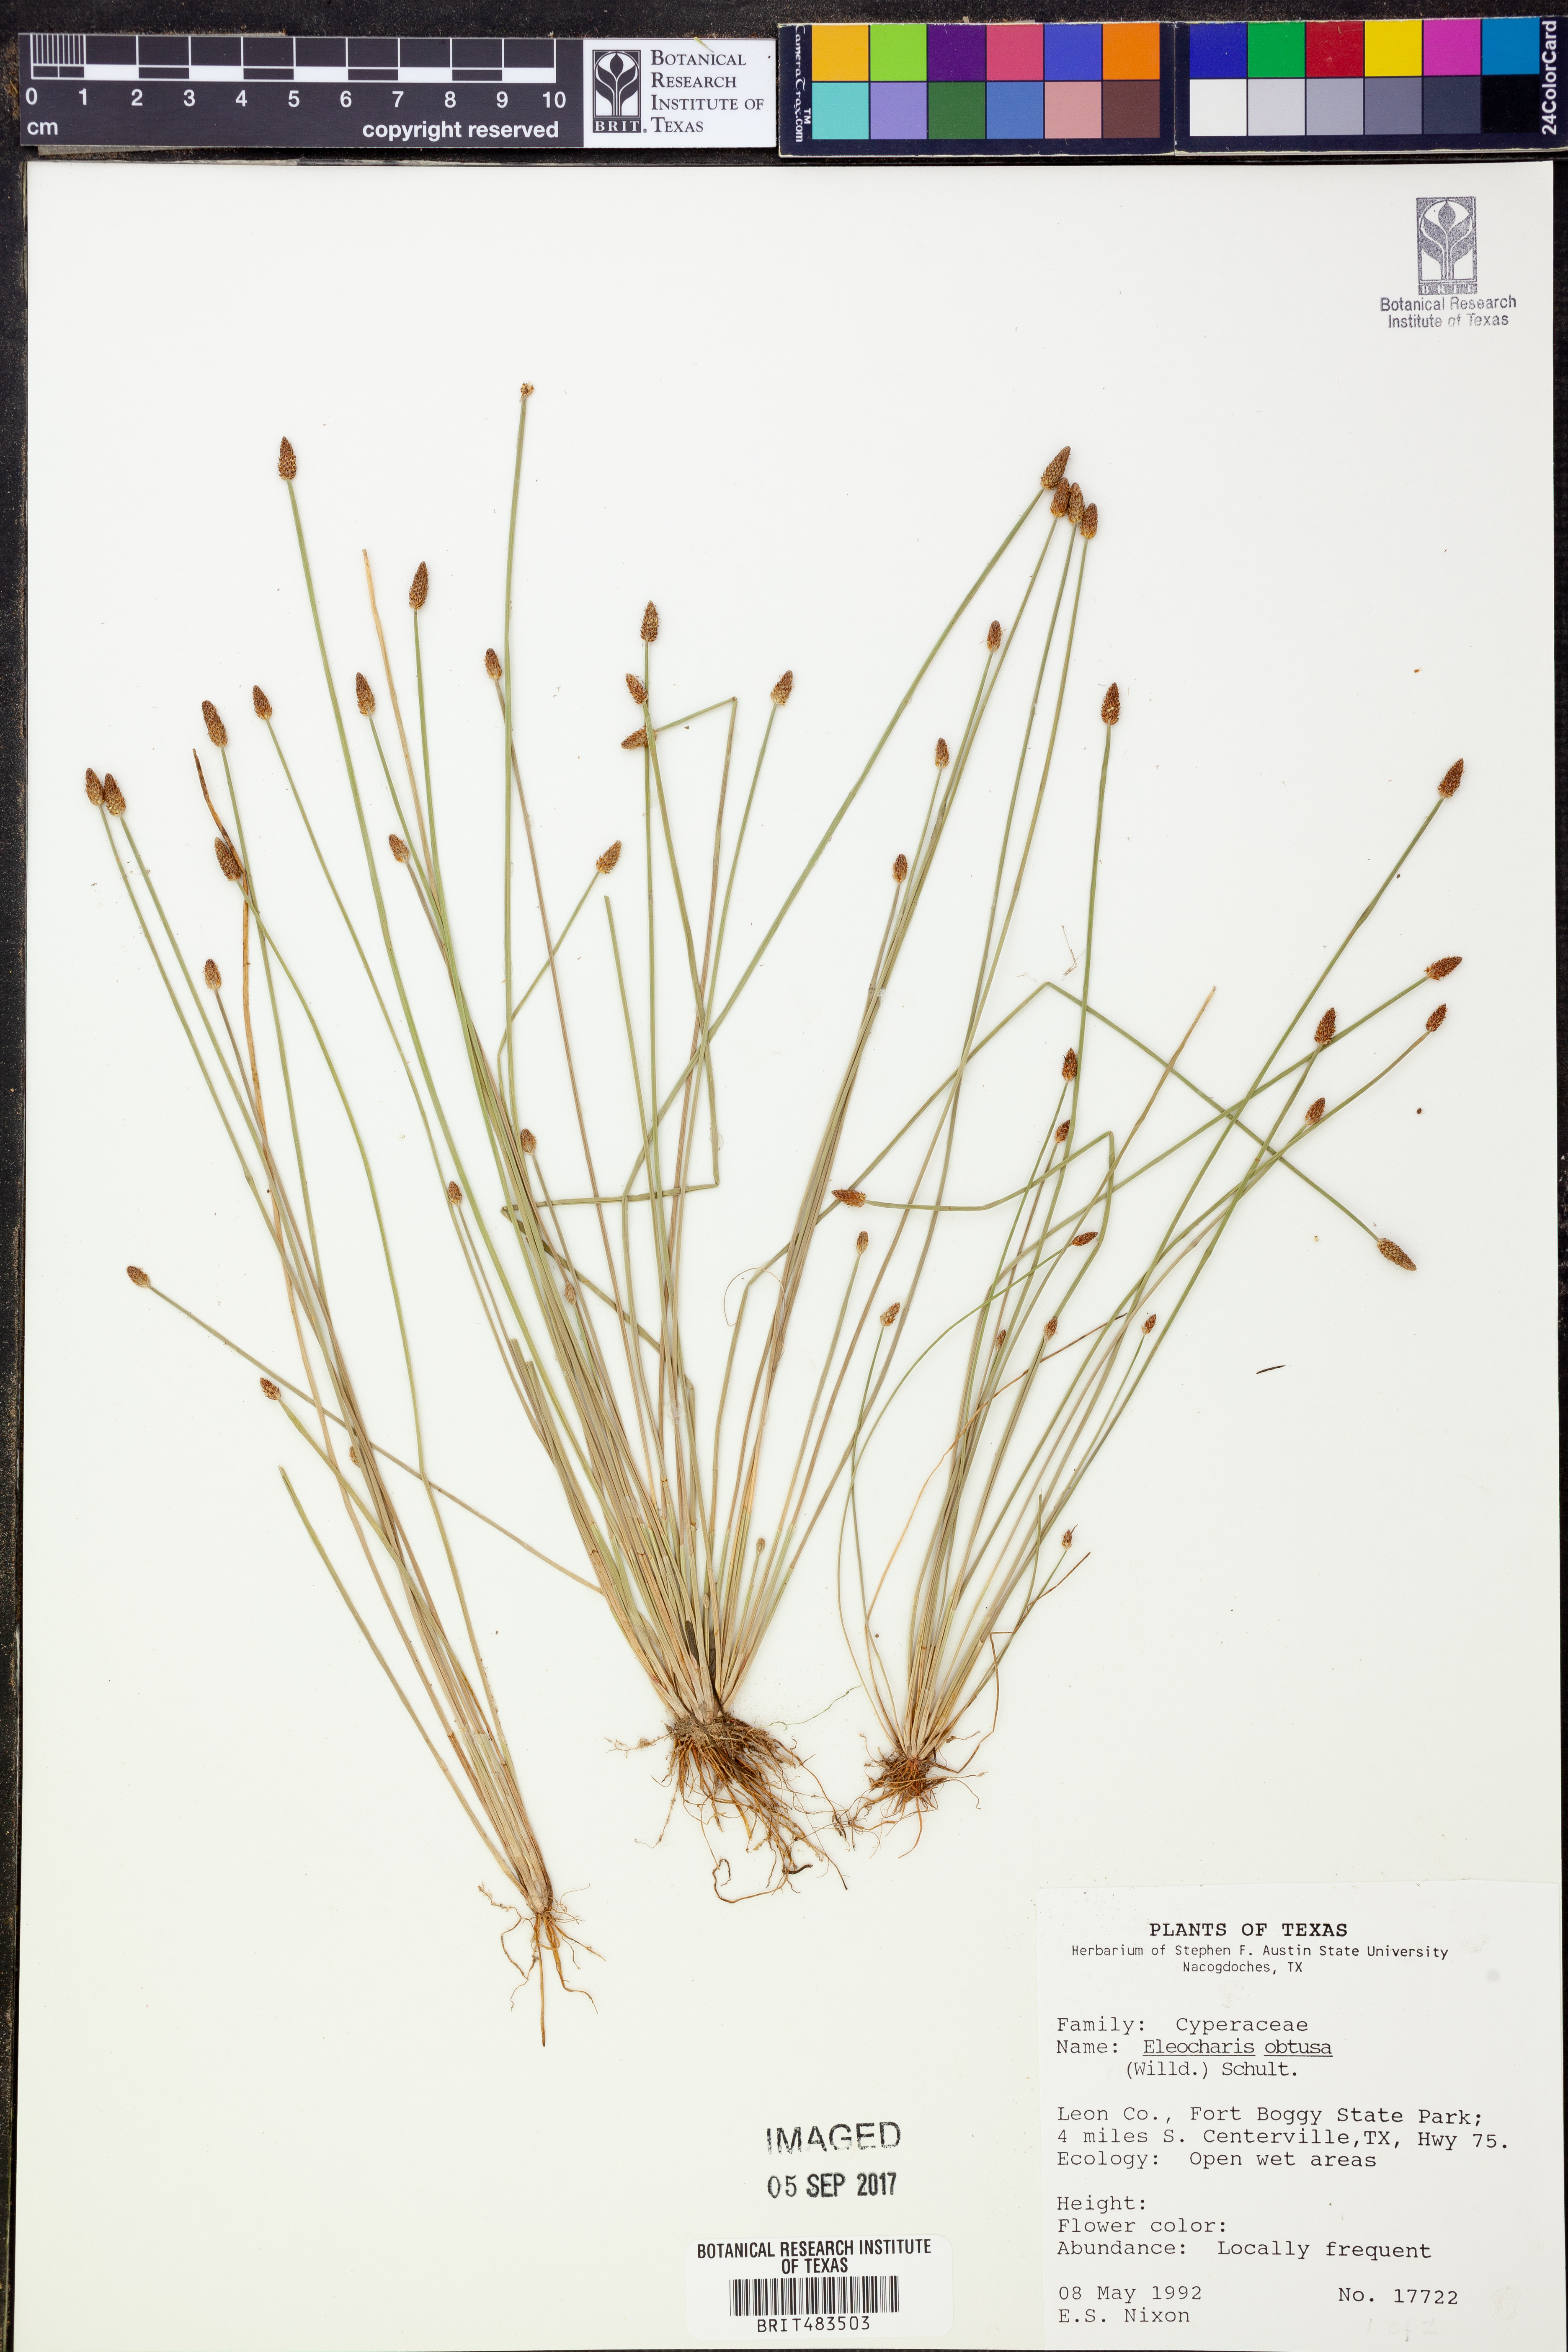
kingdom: Plantae
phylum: Tracheophyta
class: Liliopsida
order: Poales
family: Cyperaceae
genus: Eleocharis
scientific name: Eleocharis obtusa
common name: Blunt spikerush
